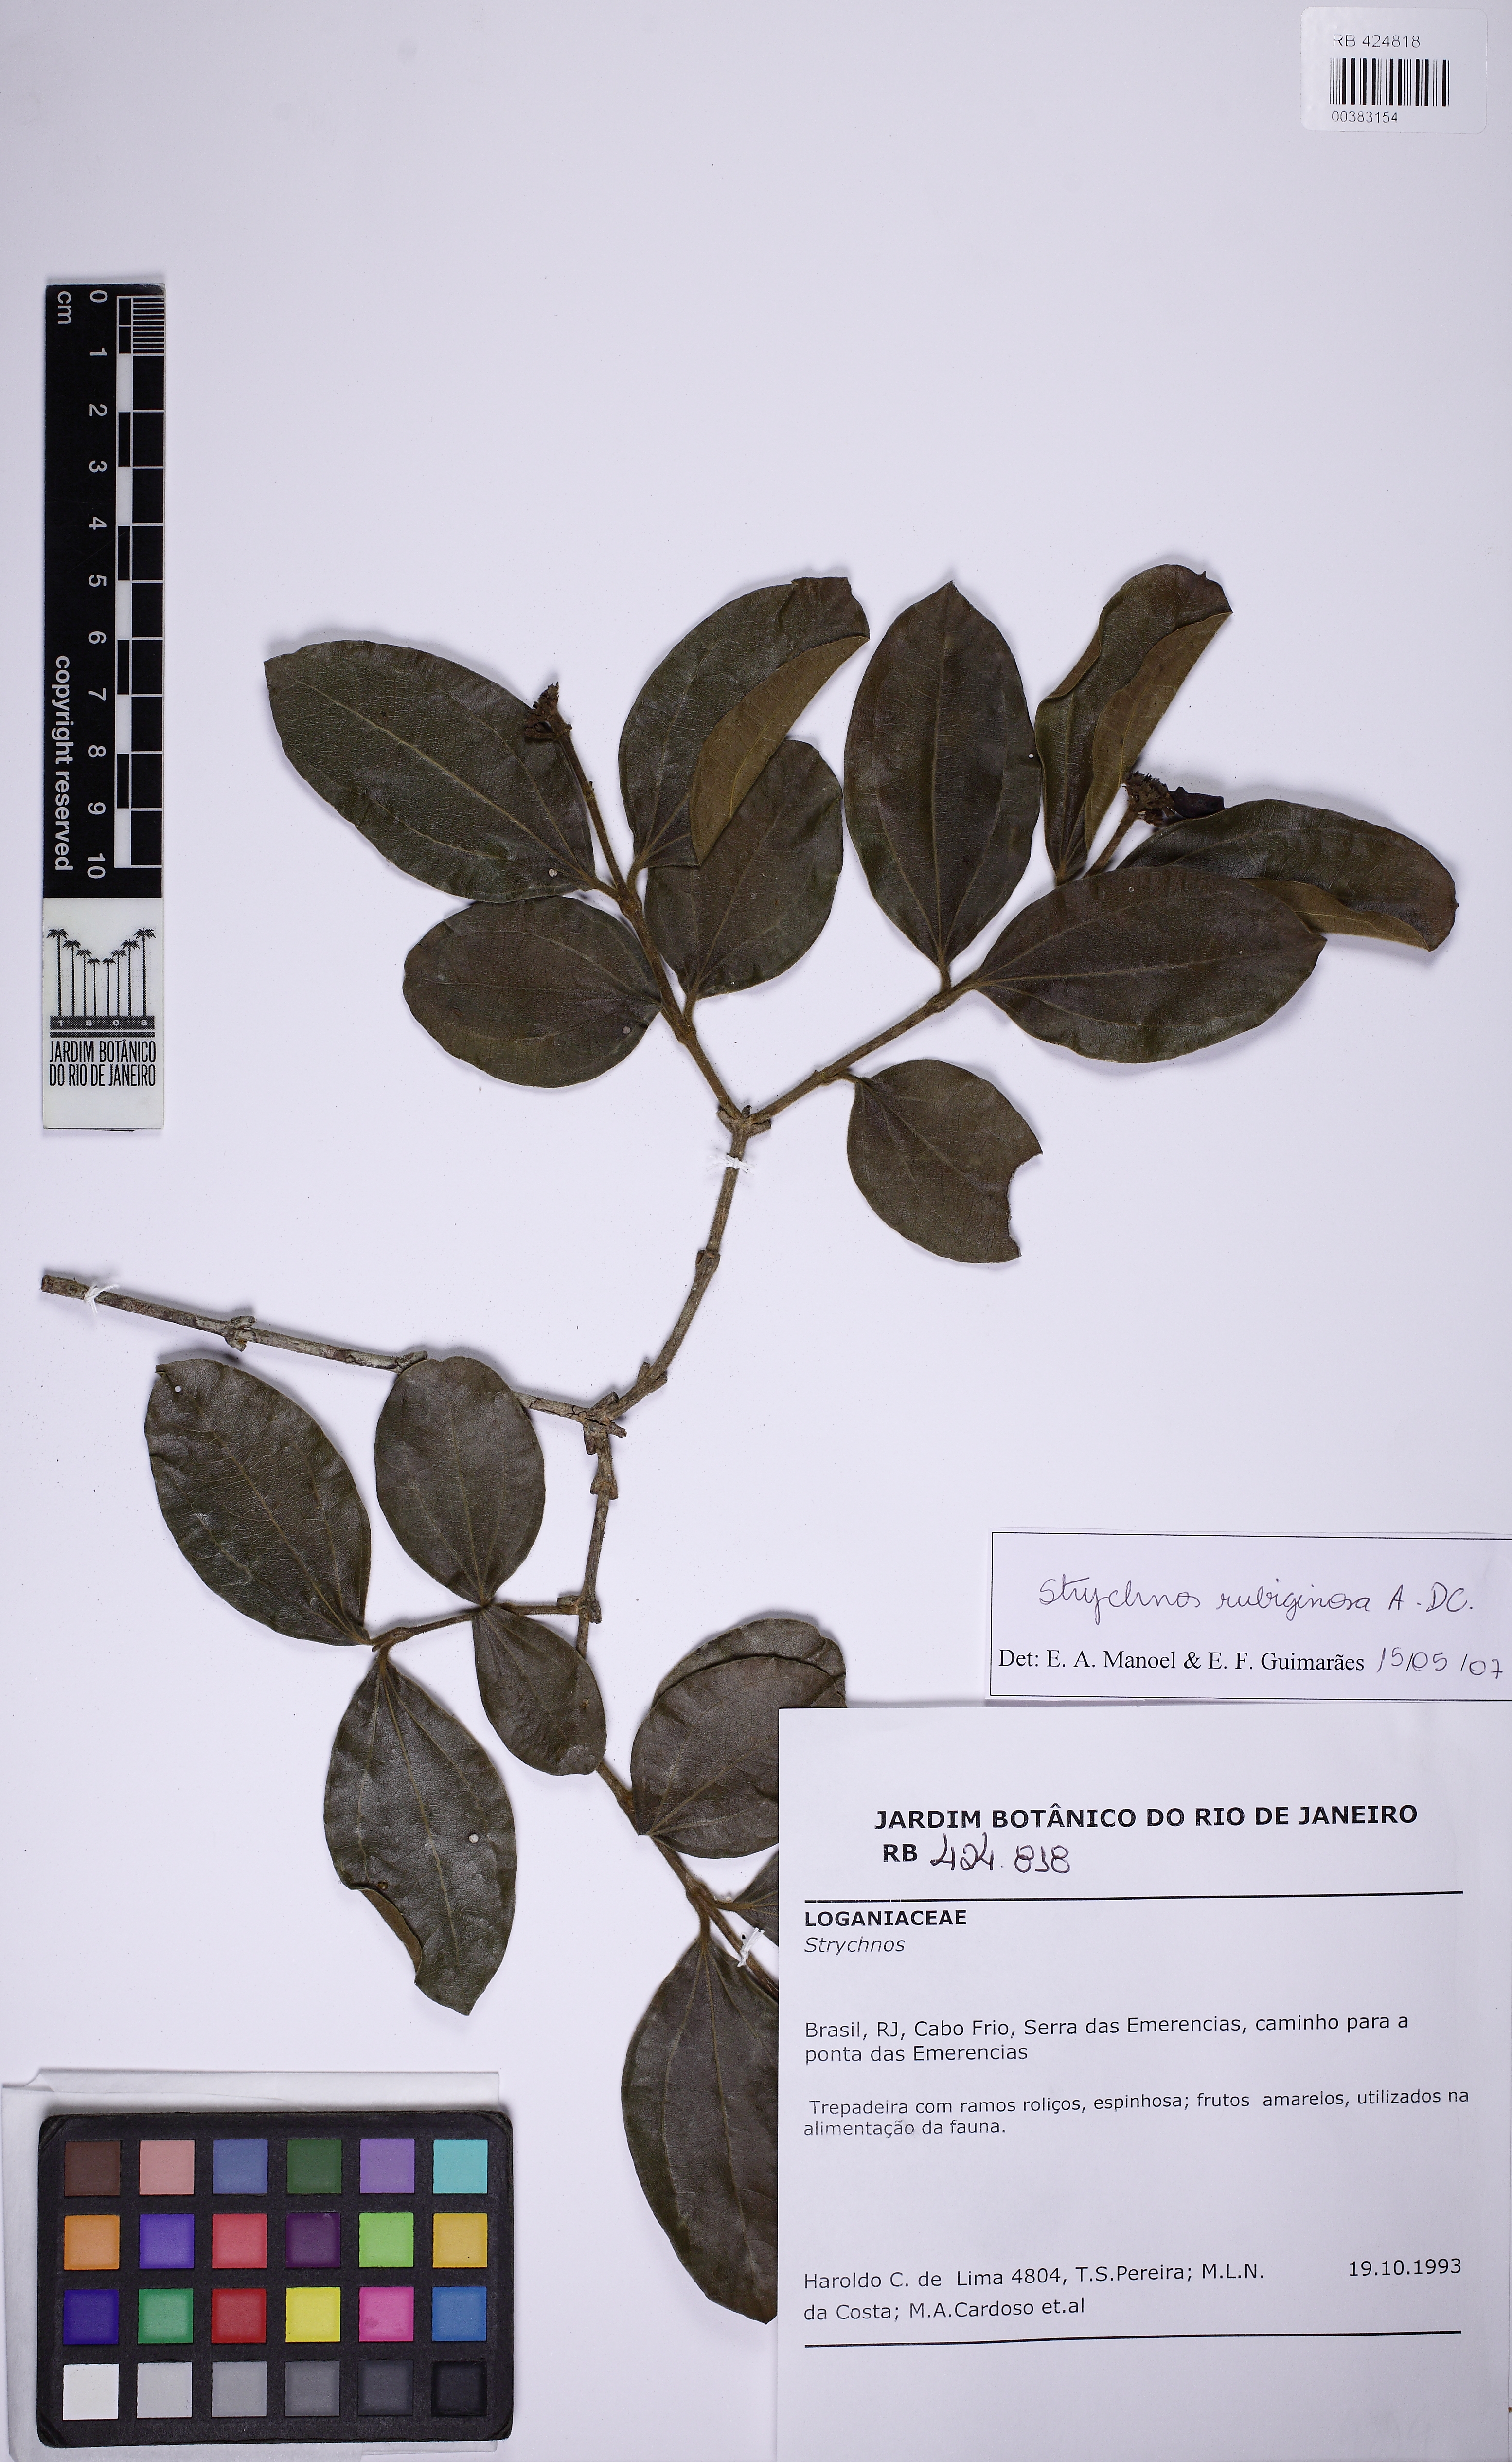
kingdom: Plantae
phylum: Tracheophyta
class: Magnoliopsida
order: Gentianales
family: Loganiaceae
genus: Strychnos
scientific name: Strychnos rubiginosa
